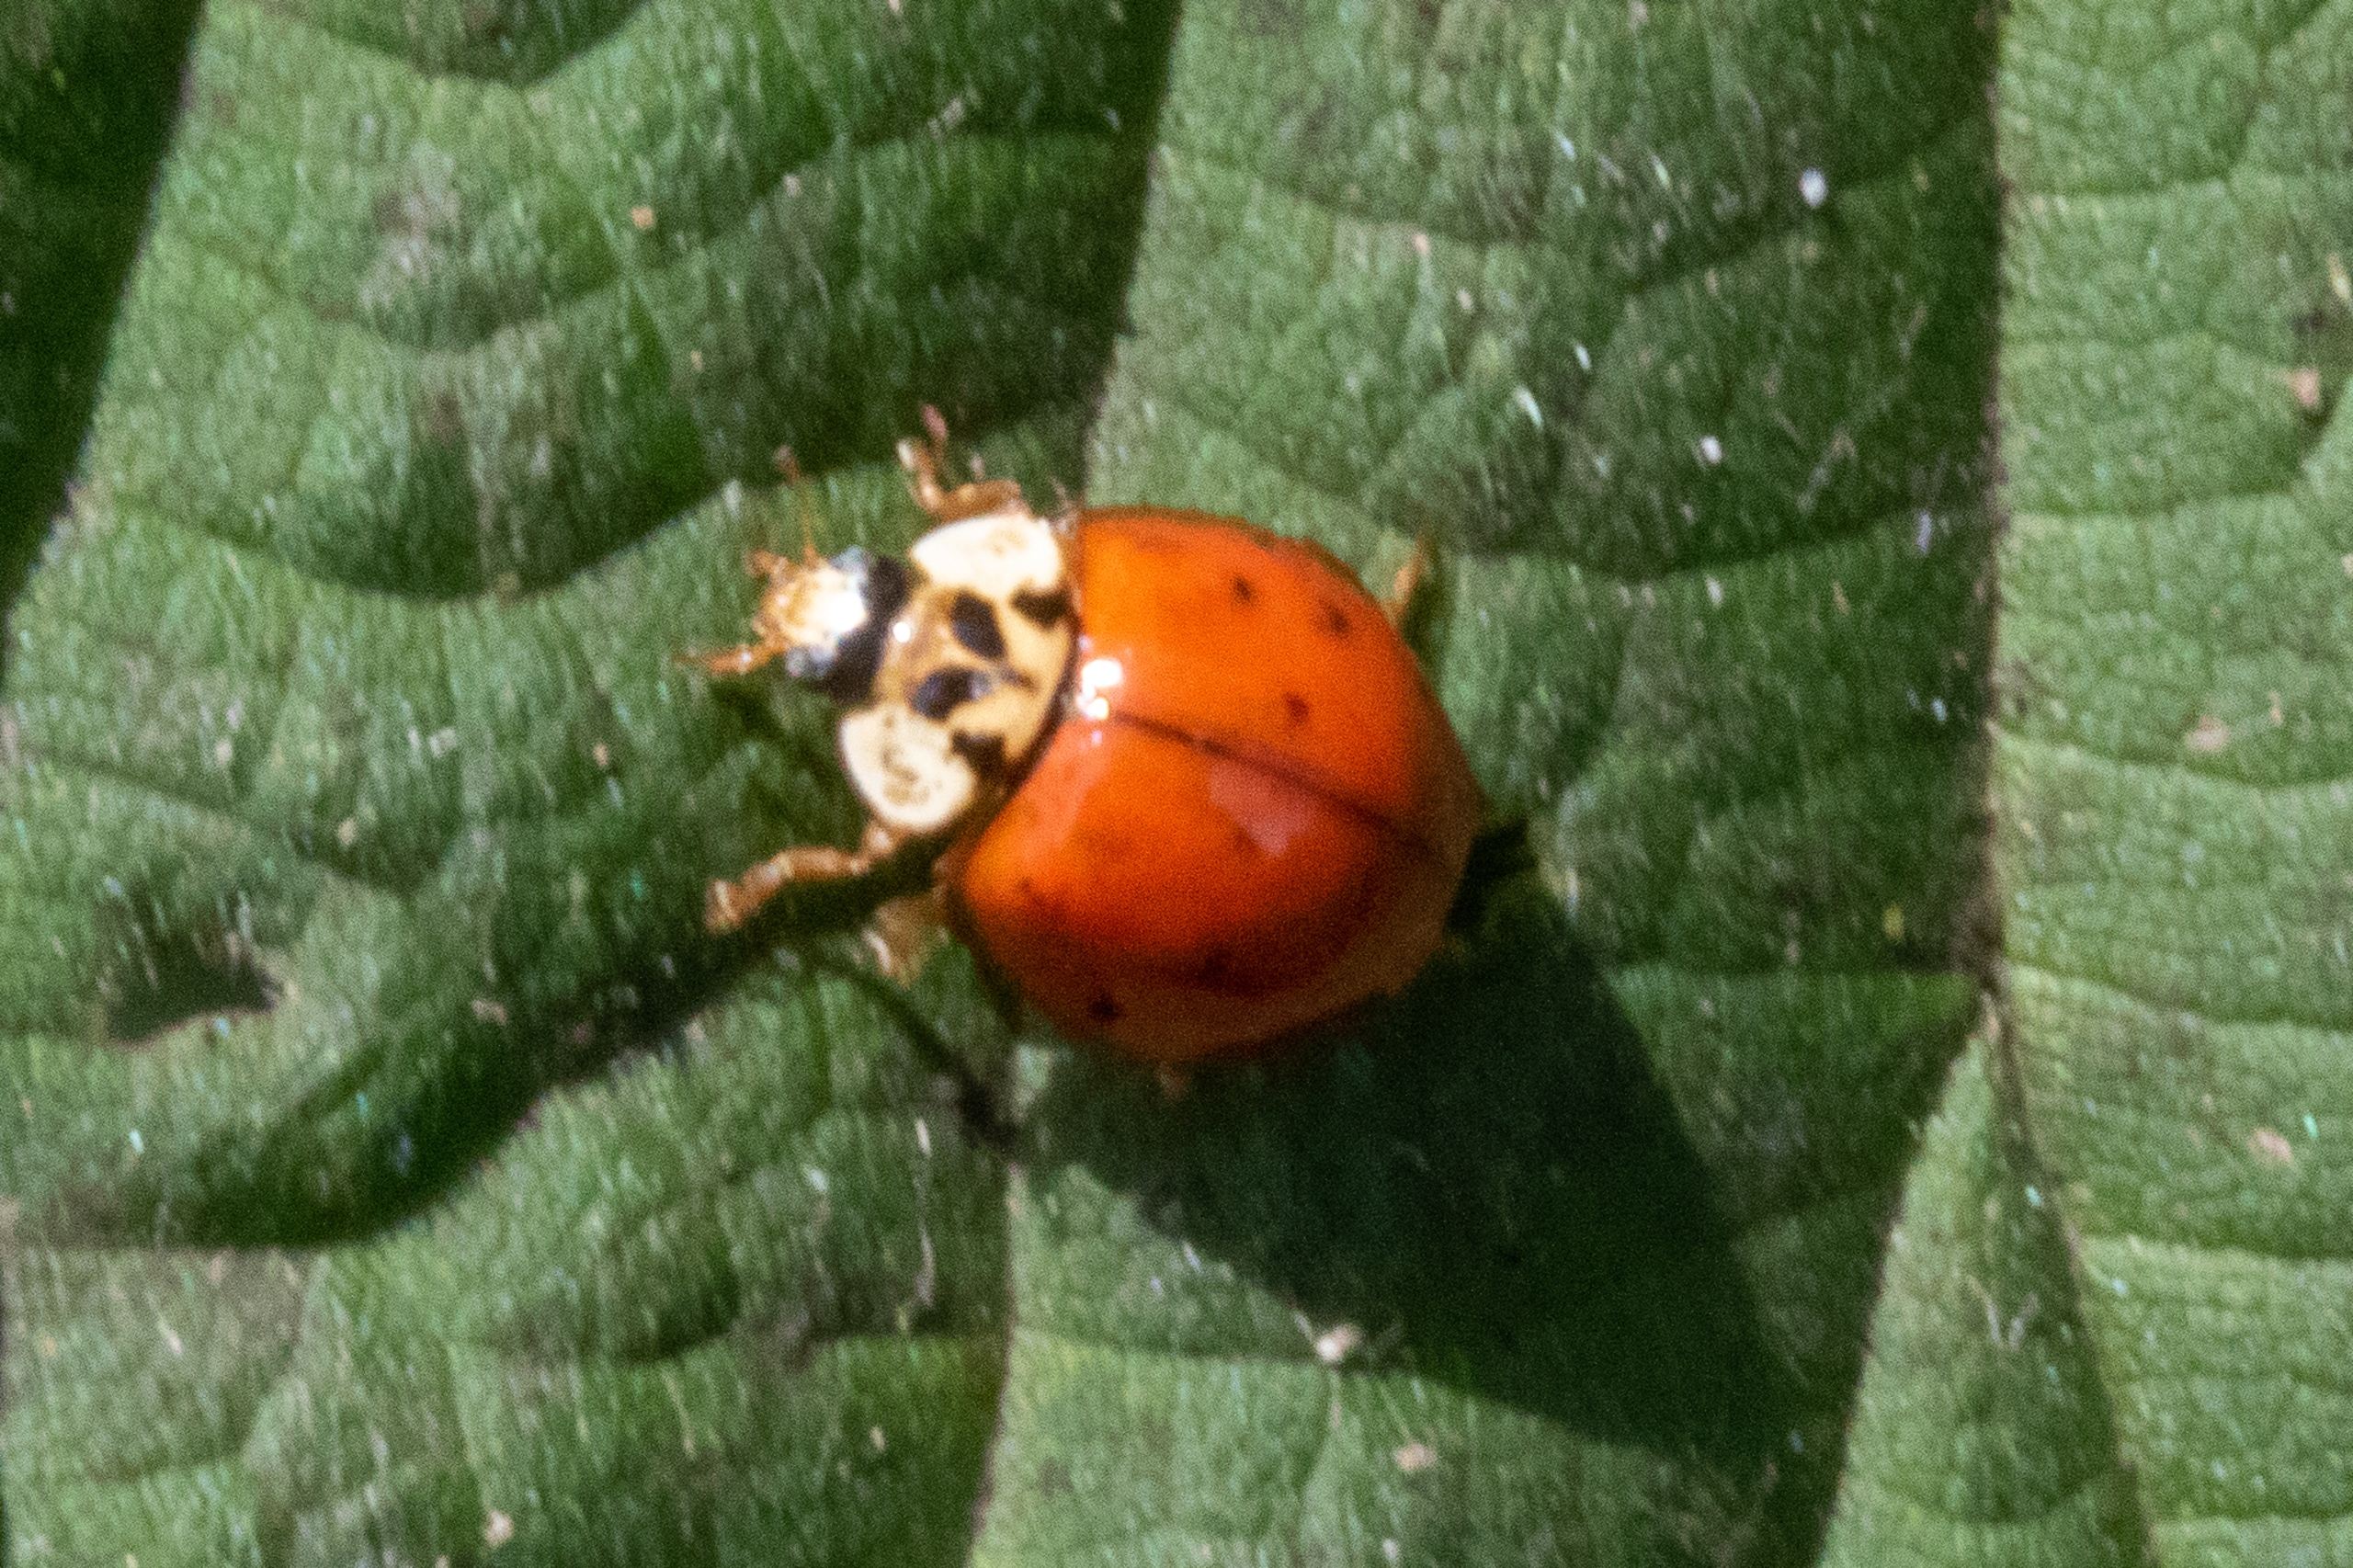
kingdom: Animalia
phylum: Arthropoda
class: Insecta
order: Coleoptera
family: Coccinellidae
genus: Adalia
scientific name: Adalia decempunctata
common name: Tiplettet mariehøne
